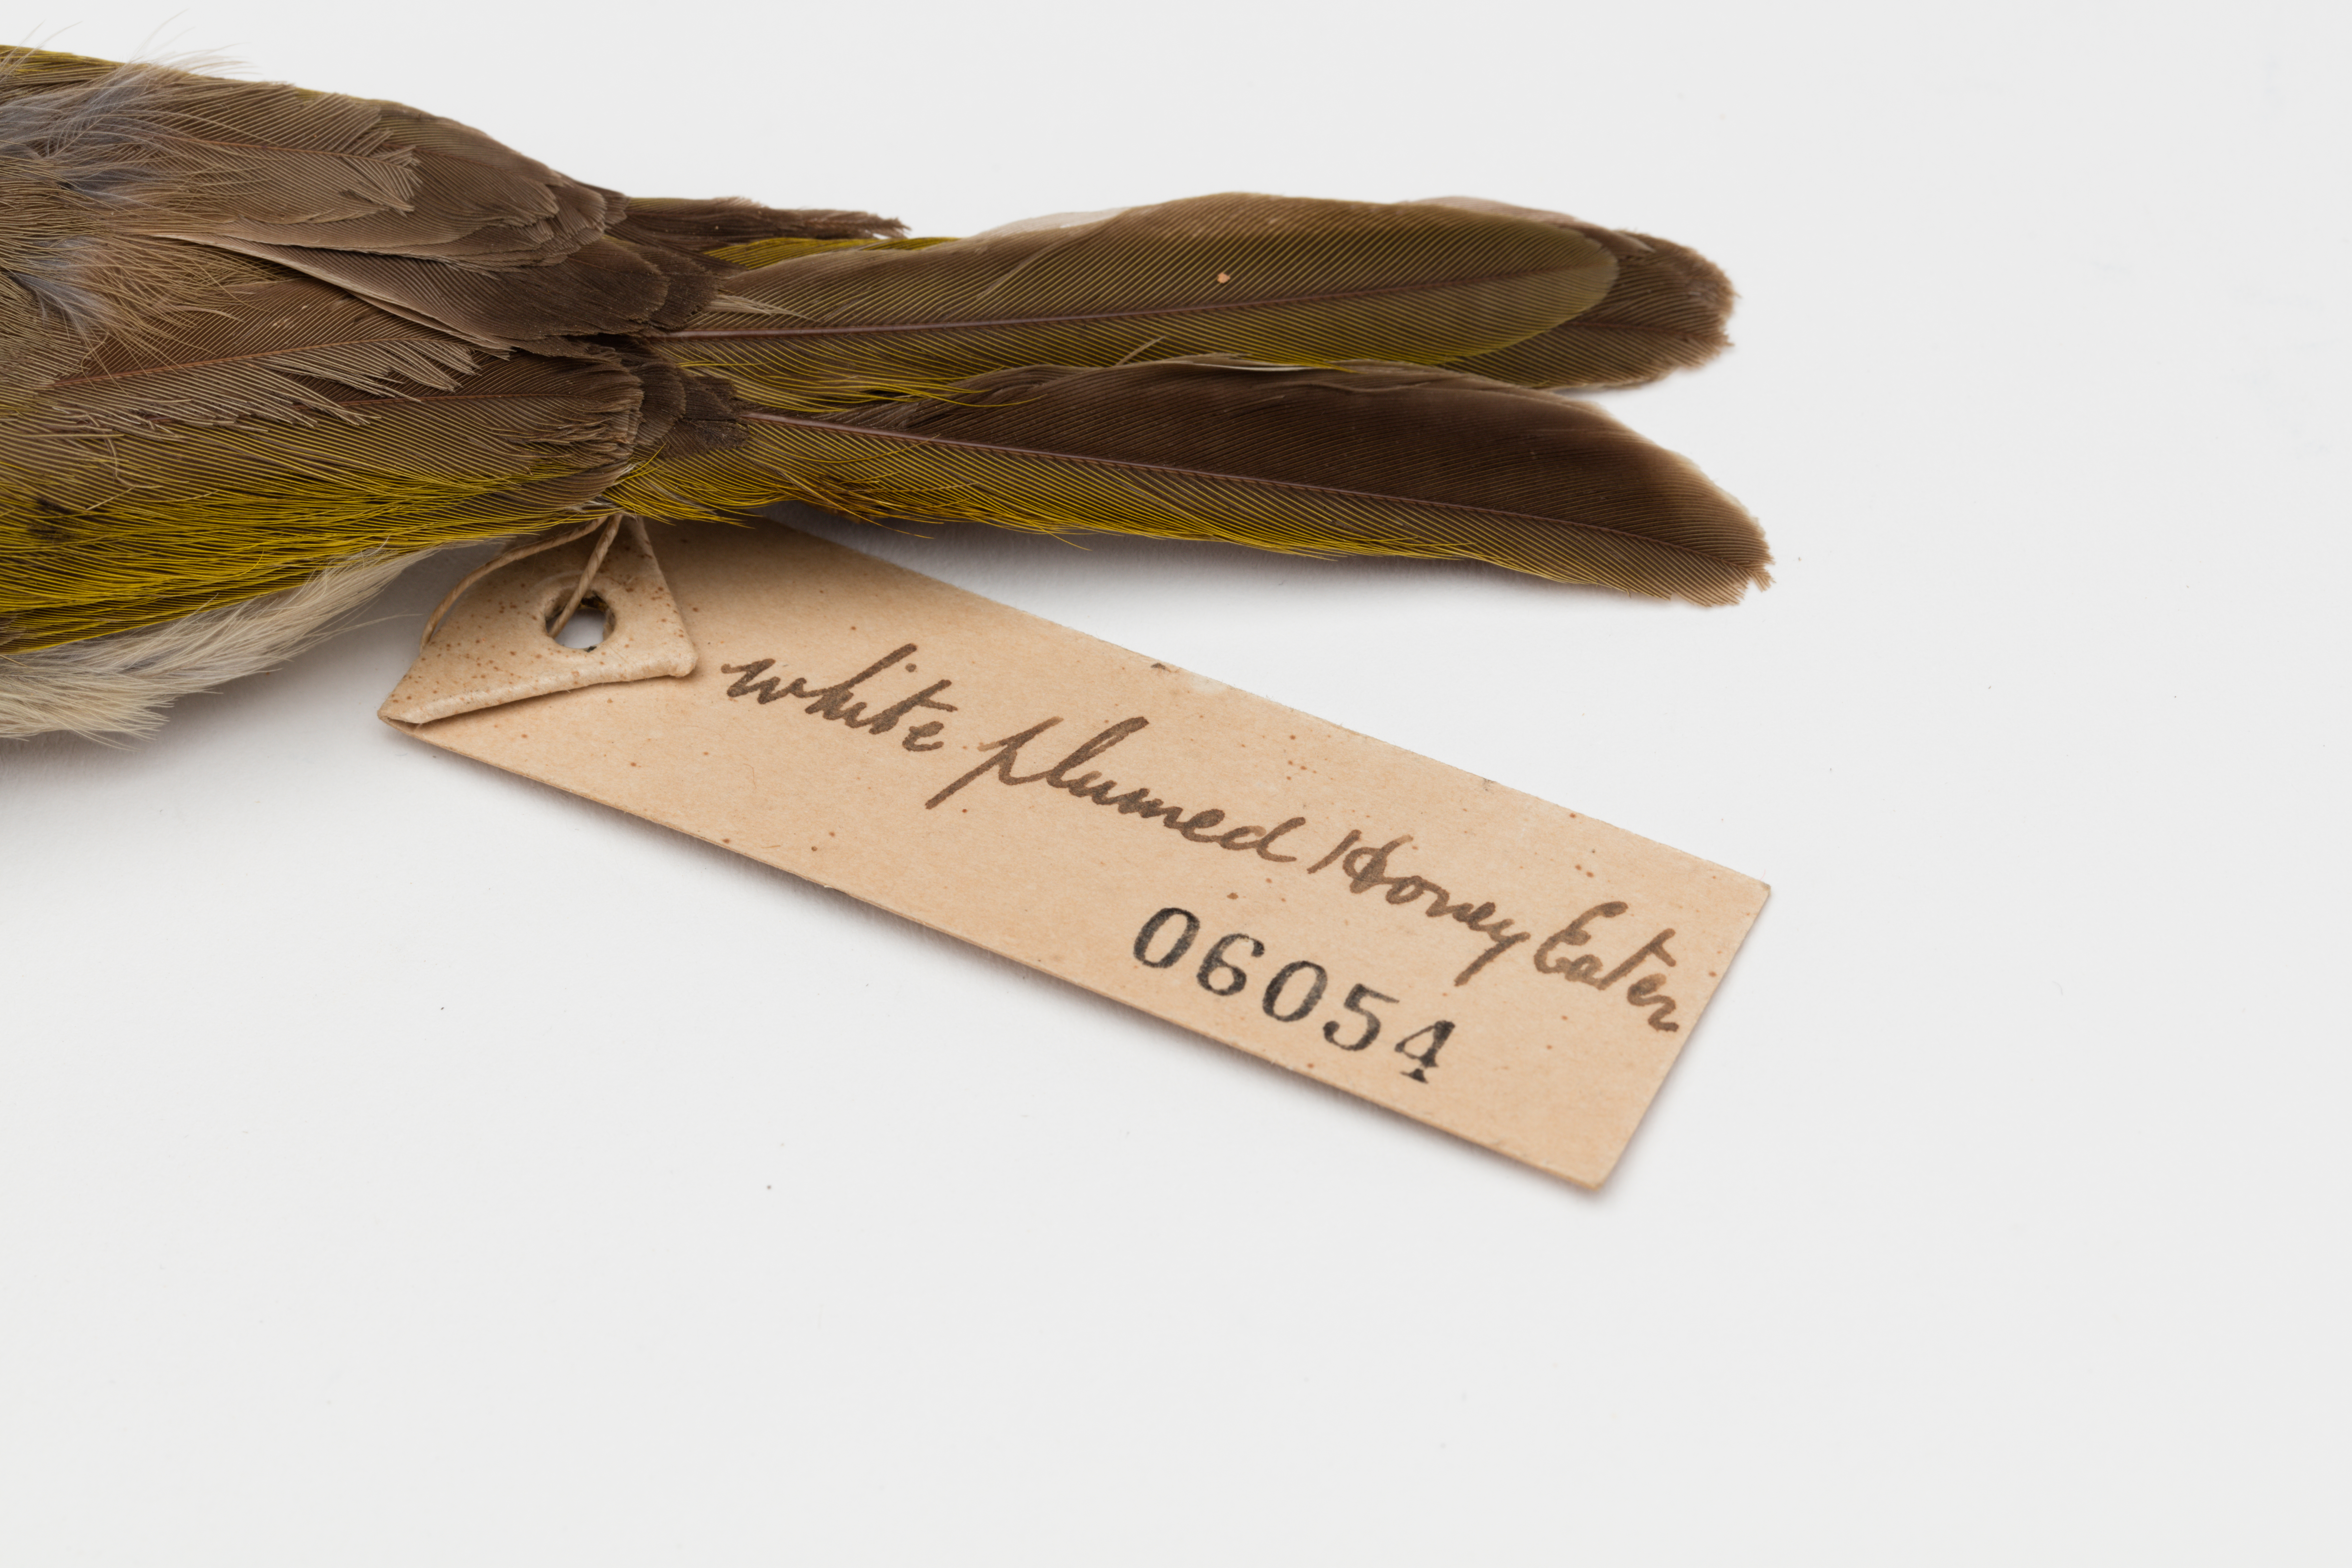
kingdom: Animalia
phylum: Chordata
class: Aves
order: Passeriformes
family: Meliphagidae
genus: Ptilotula
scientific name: Ptilotula penicillata
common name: White-plumed honeyeater
